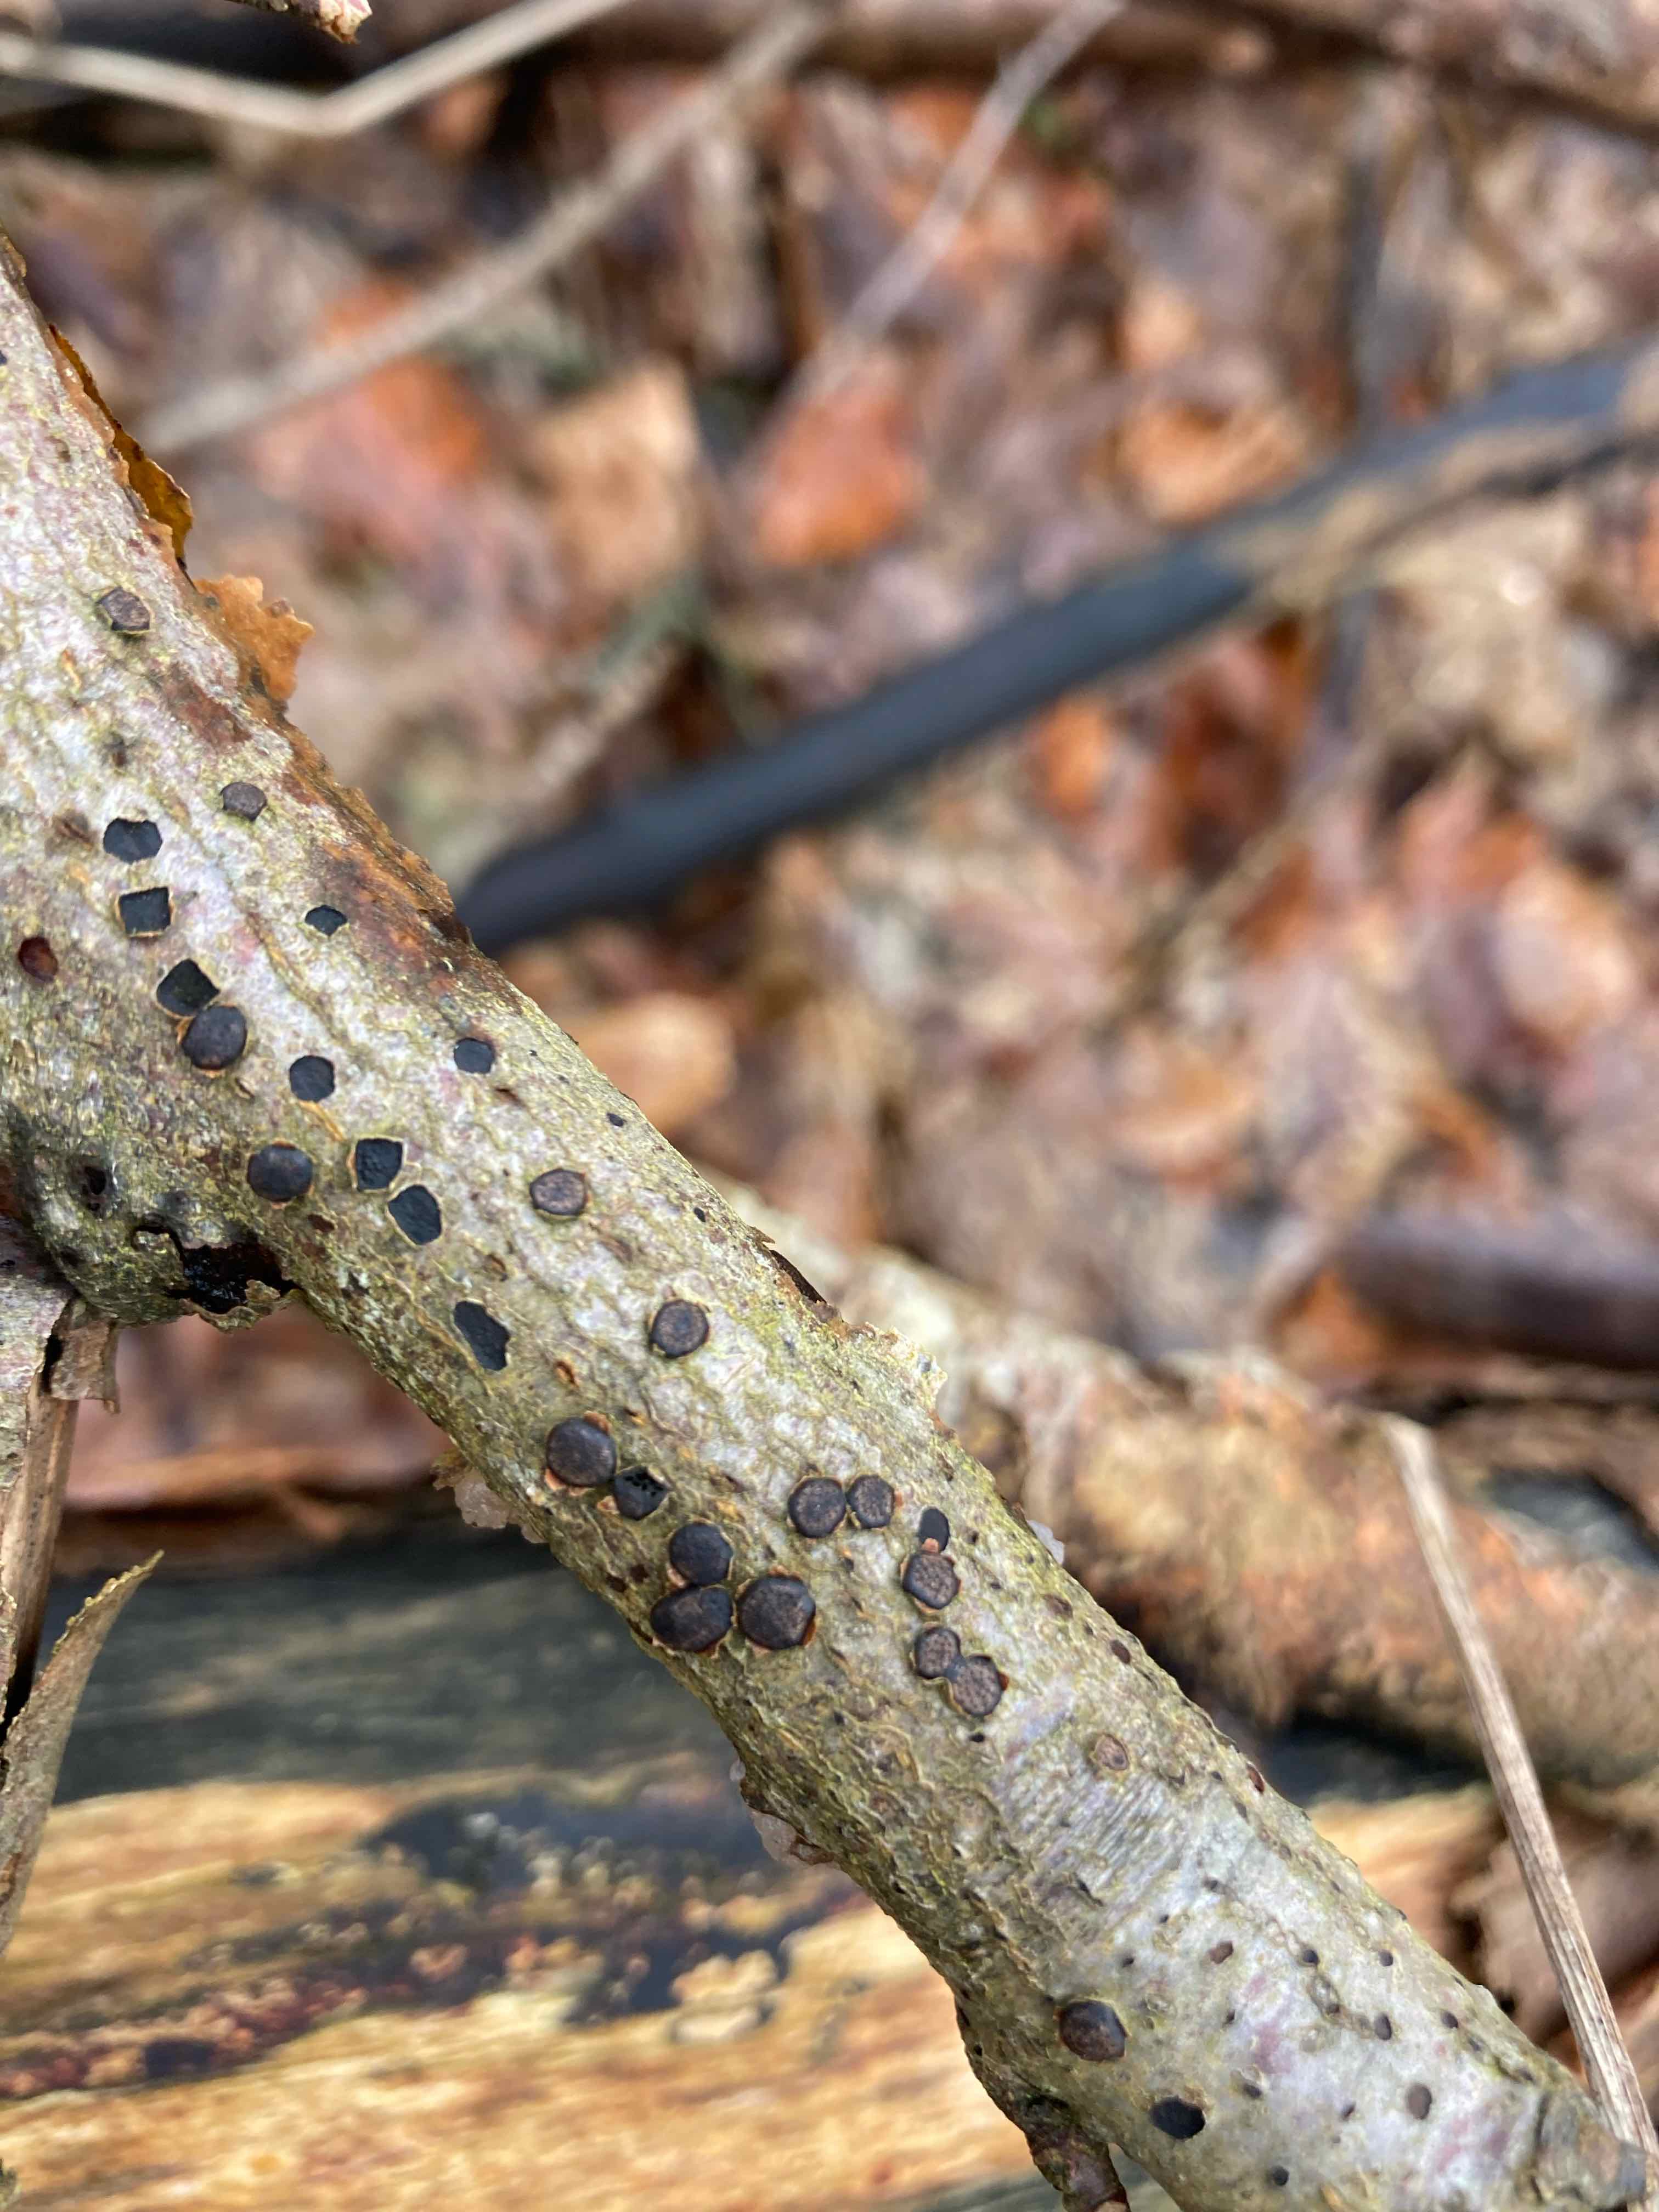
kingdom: Fungi
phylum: Ascomycota
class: Sordariomycetes
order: Xylariales
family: Diatrypaceae
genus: Diatrype
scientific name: Diatrype disciformis
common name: kant-kulskorpe
